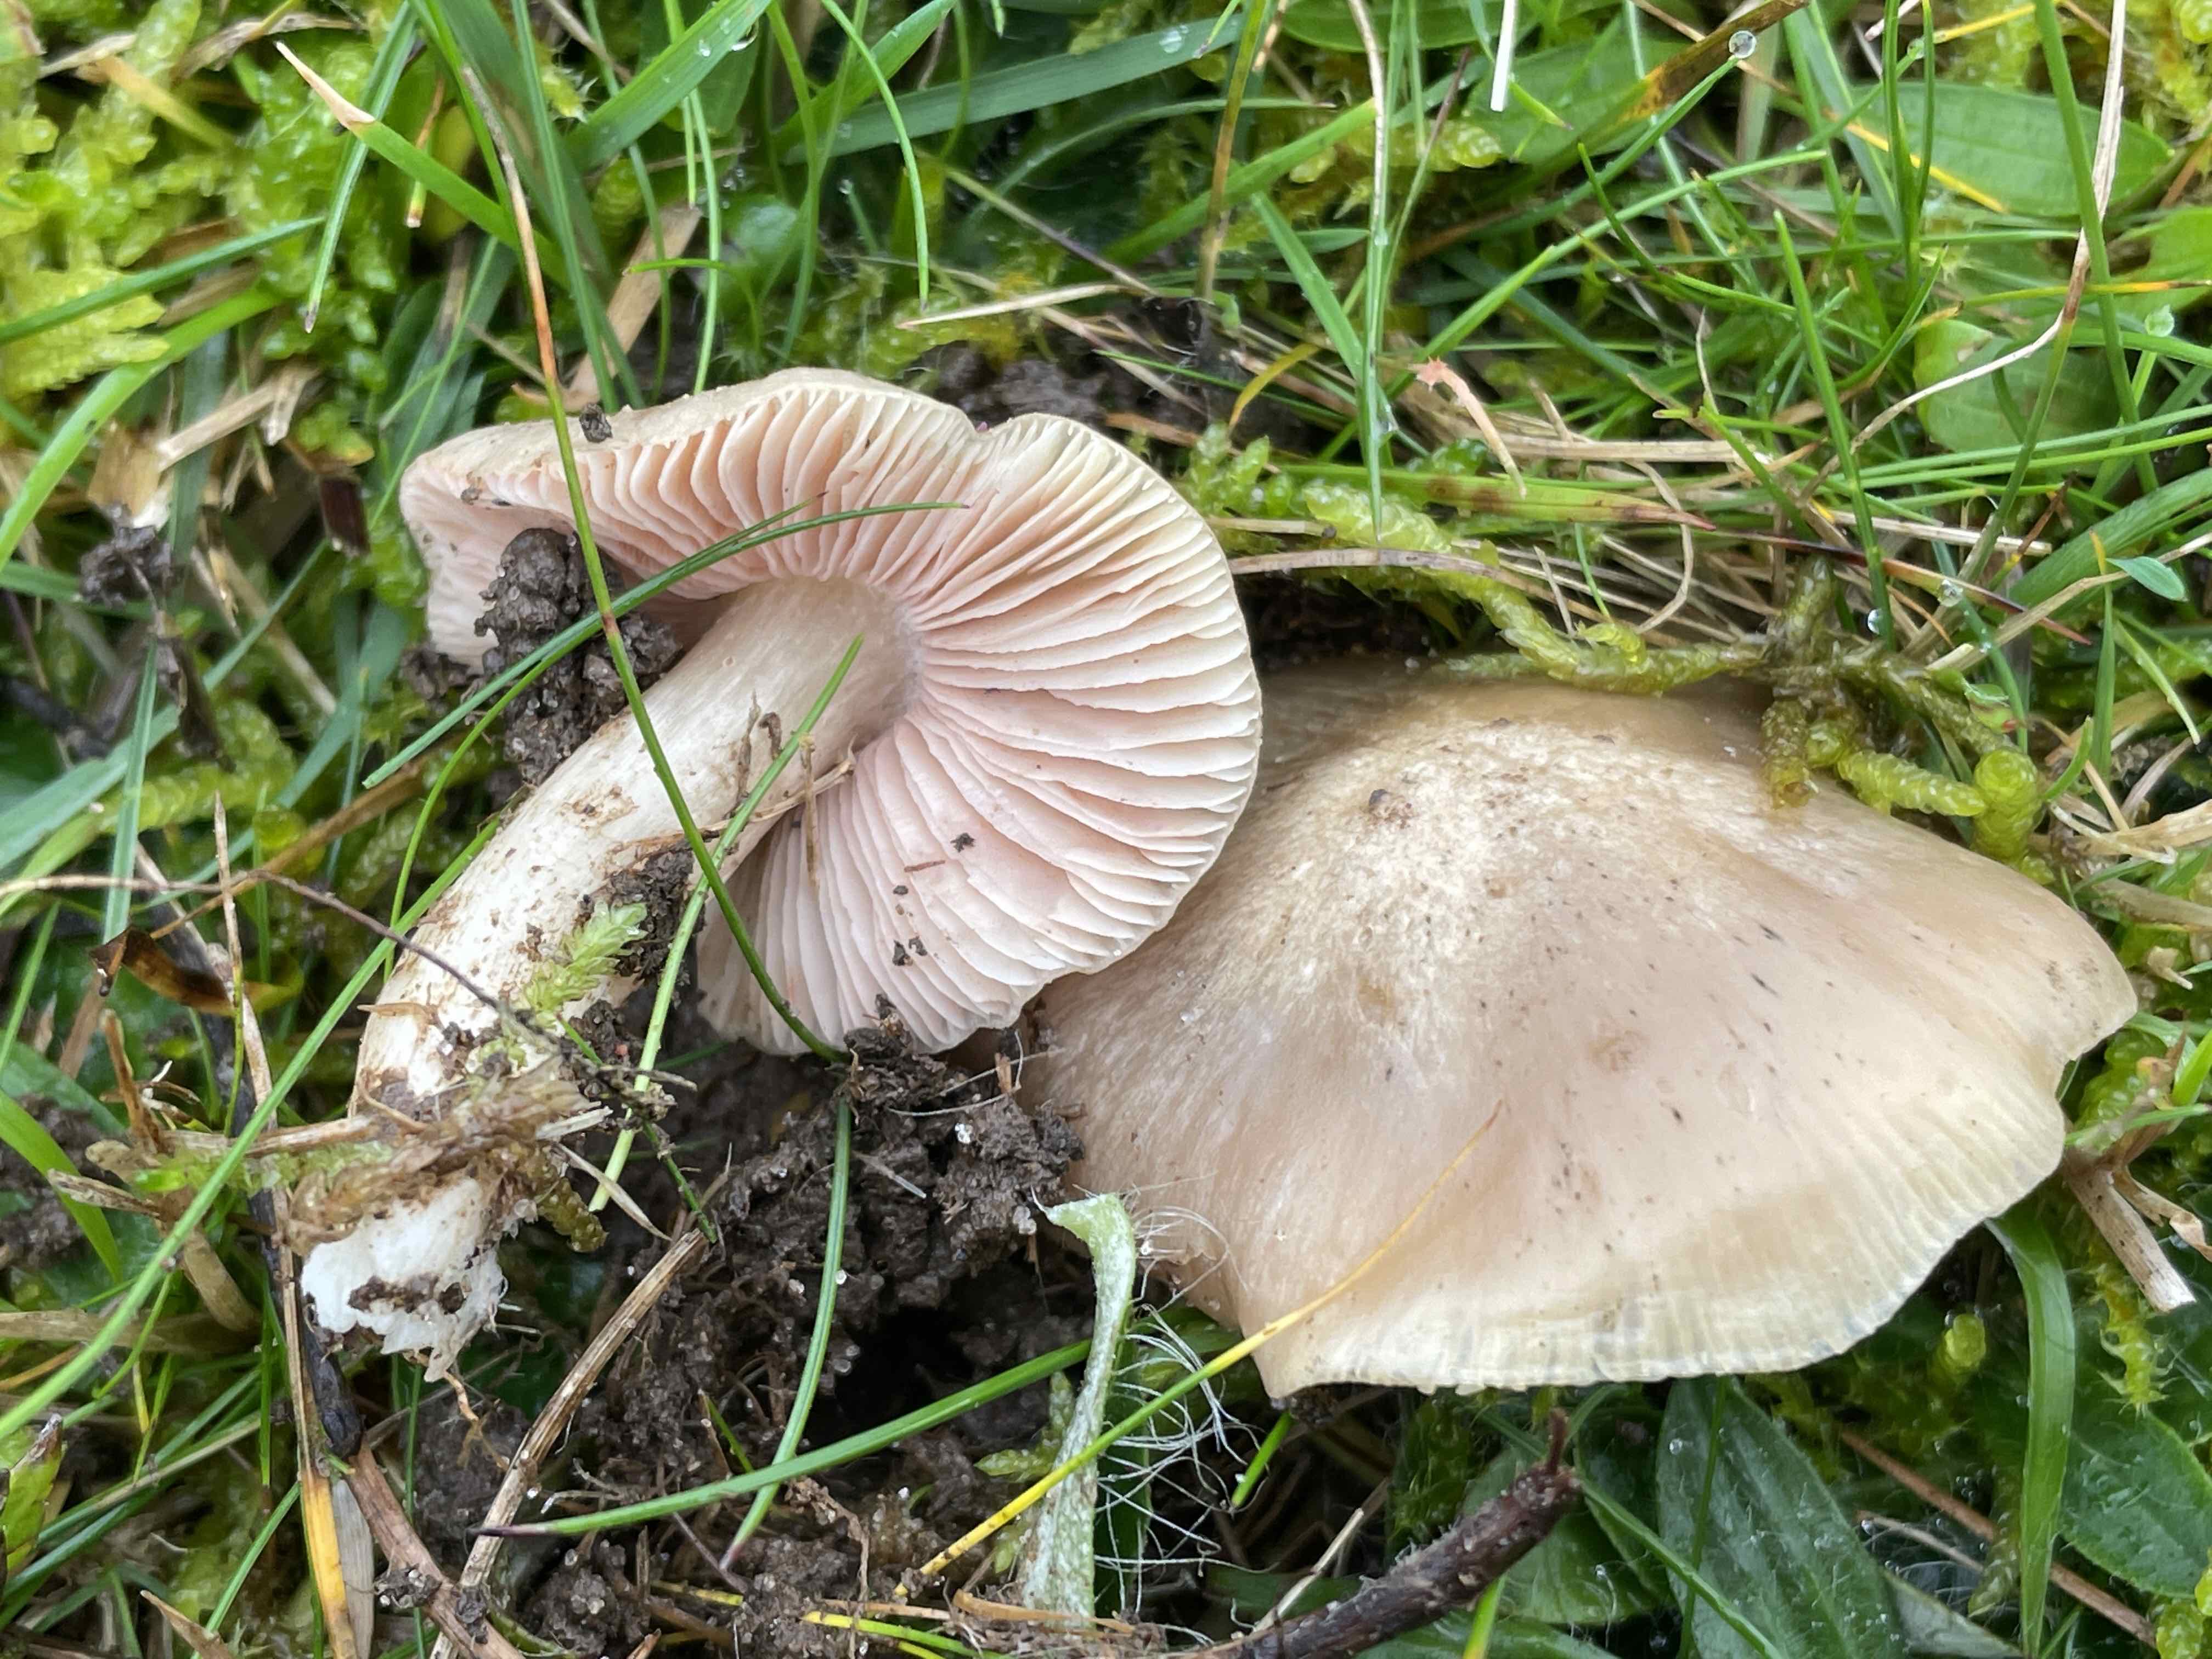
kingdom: Fungi
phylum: Basidiomycota
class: Agaricomycetes
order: Agaricales
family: Entolomataceae
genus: Entoloma
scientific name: Entoloma prunuloides
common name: mel-rødblad
